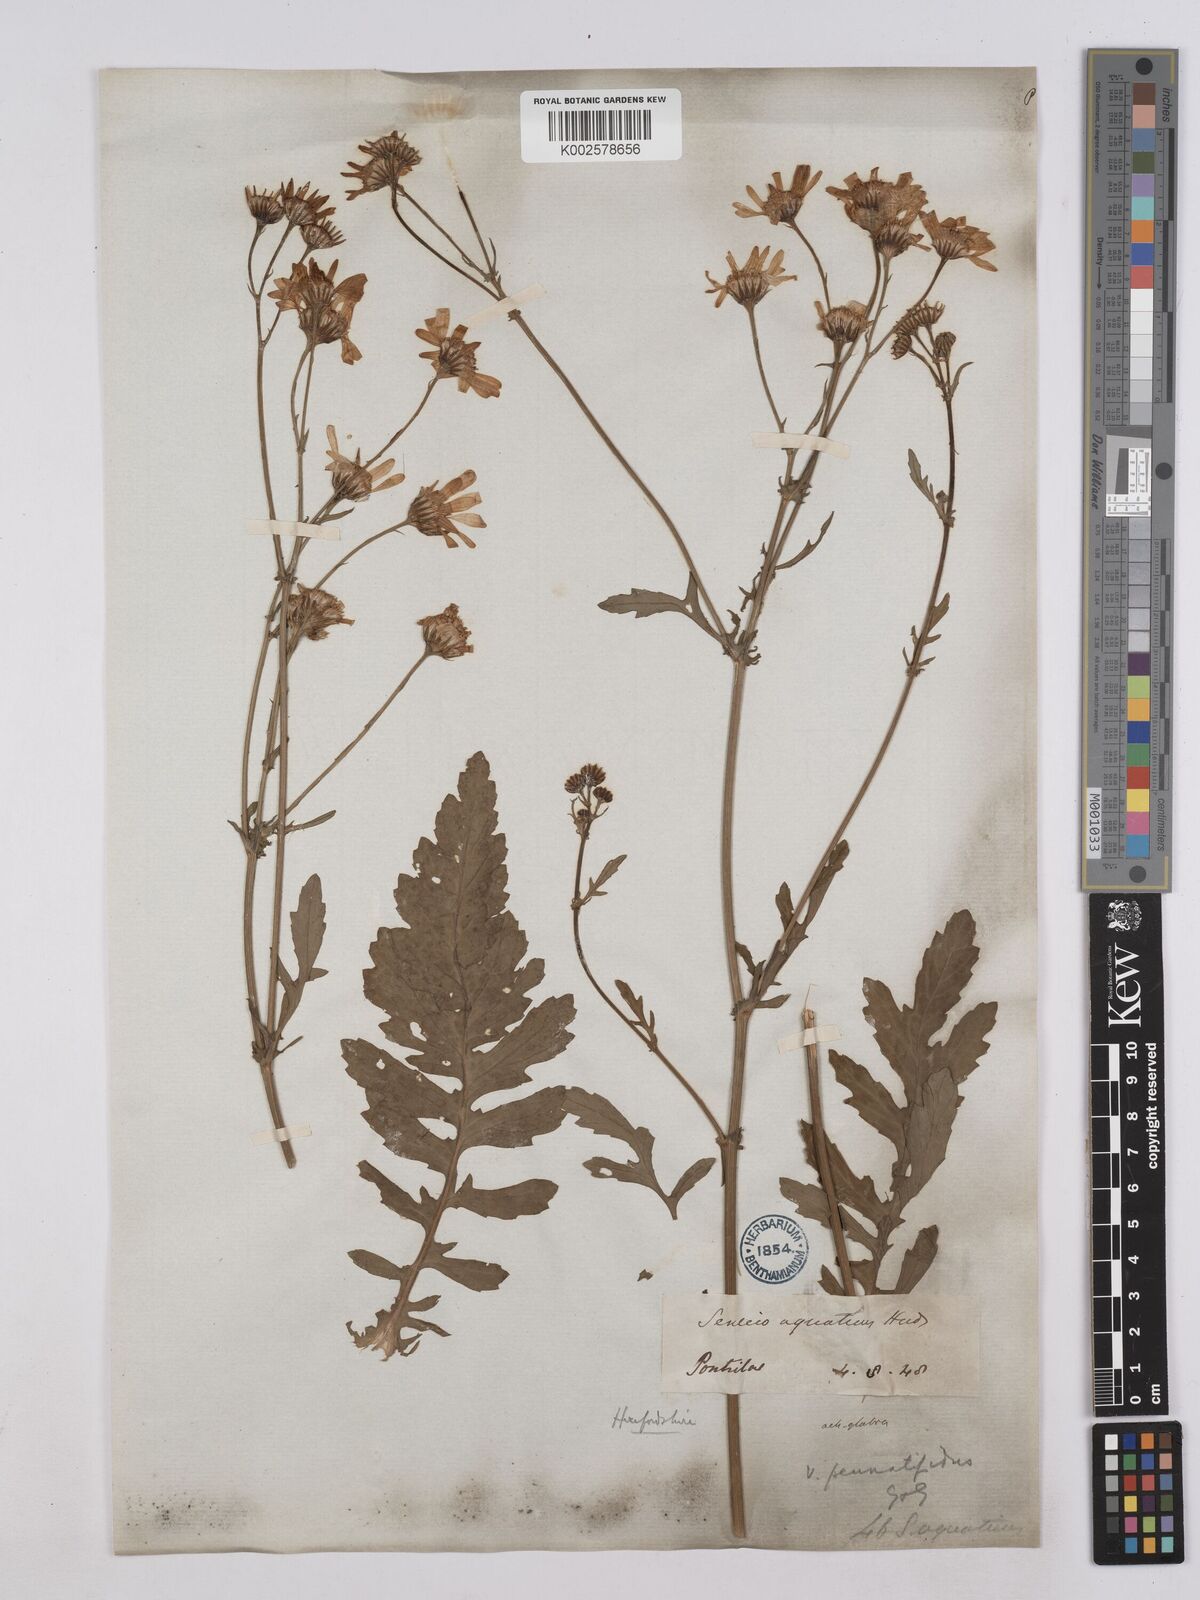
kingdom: Plantae
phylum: Tracheophyta
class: Magnoliopsida
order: Asterales
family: Asteraceae
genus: Jacobaea
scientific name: Jacobaea aquatica
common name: Water ragwort
